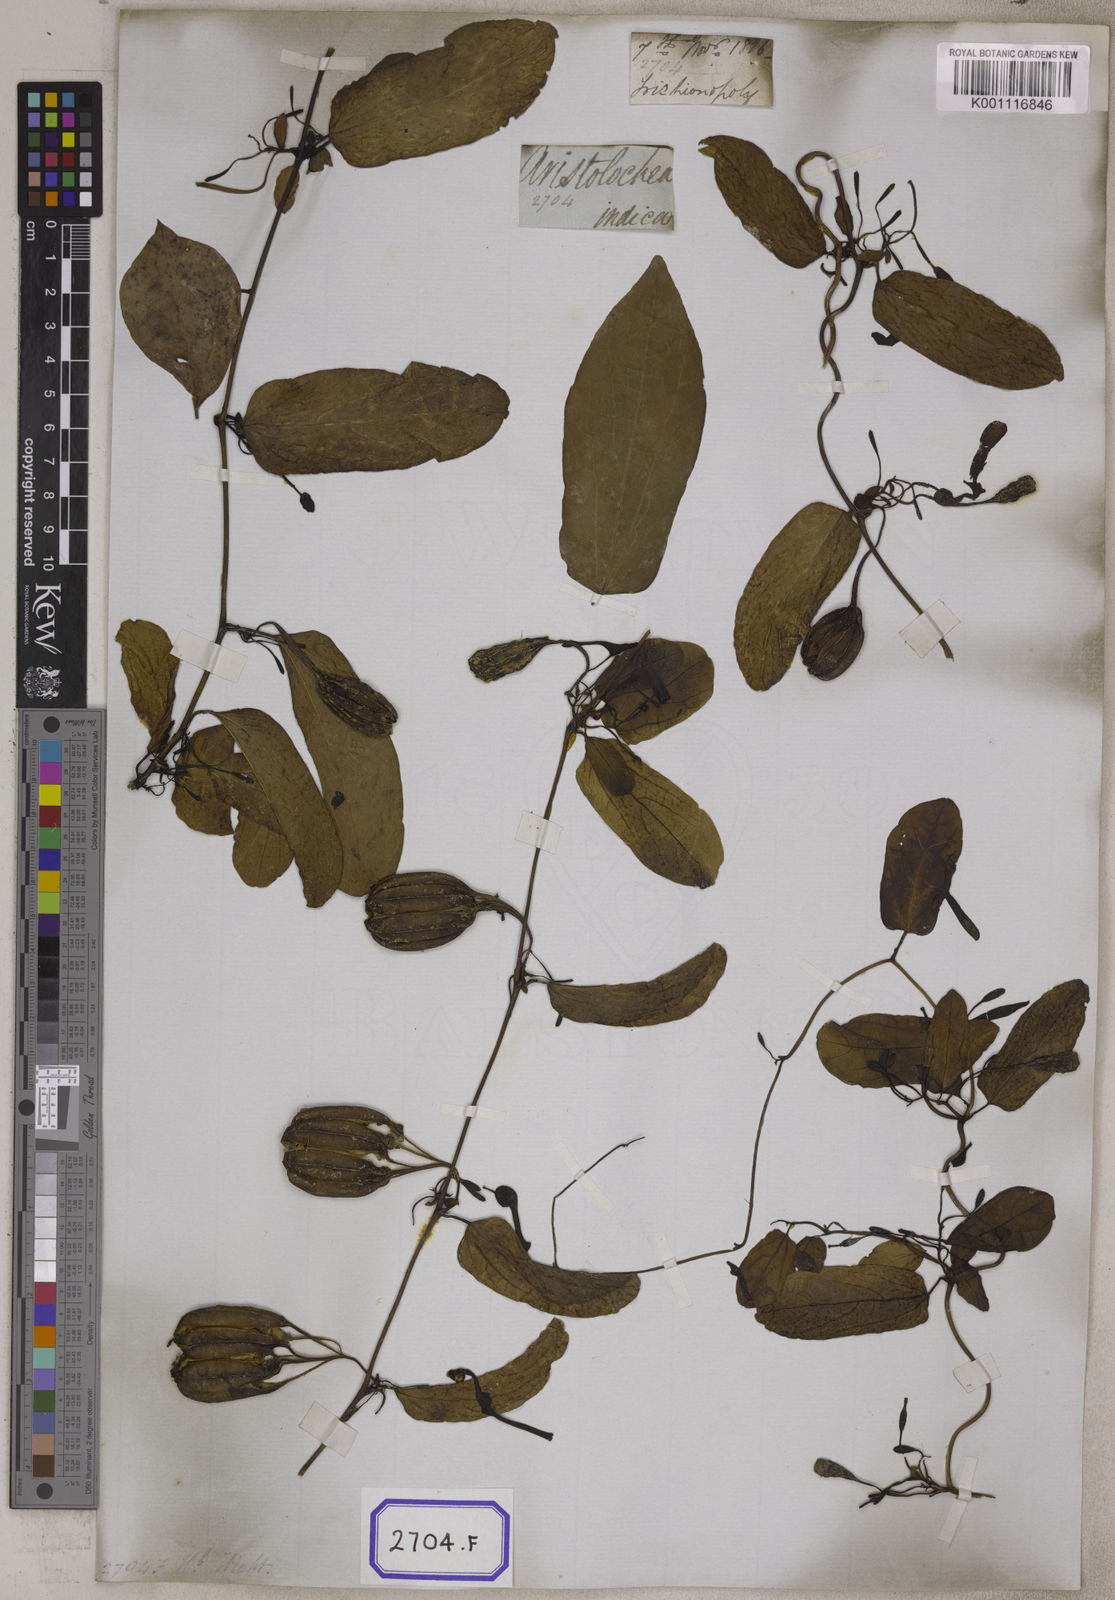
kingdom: Plantae
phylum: Tracheophyta
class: Magnoliopsida
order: Piperales
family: Aristolochiaceae
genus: Aristolochia
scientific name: Aristolochia indica
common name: Indian birthwort
